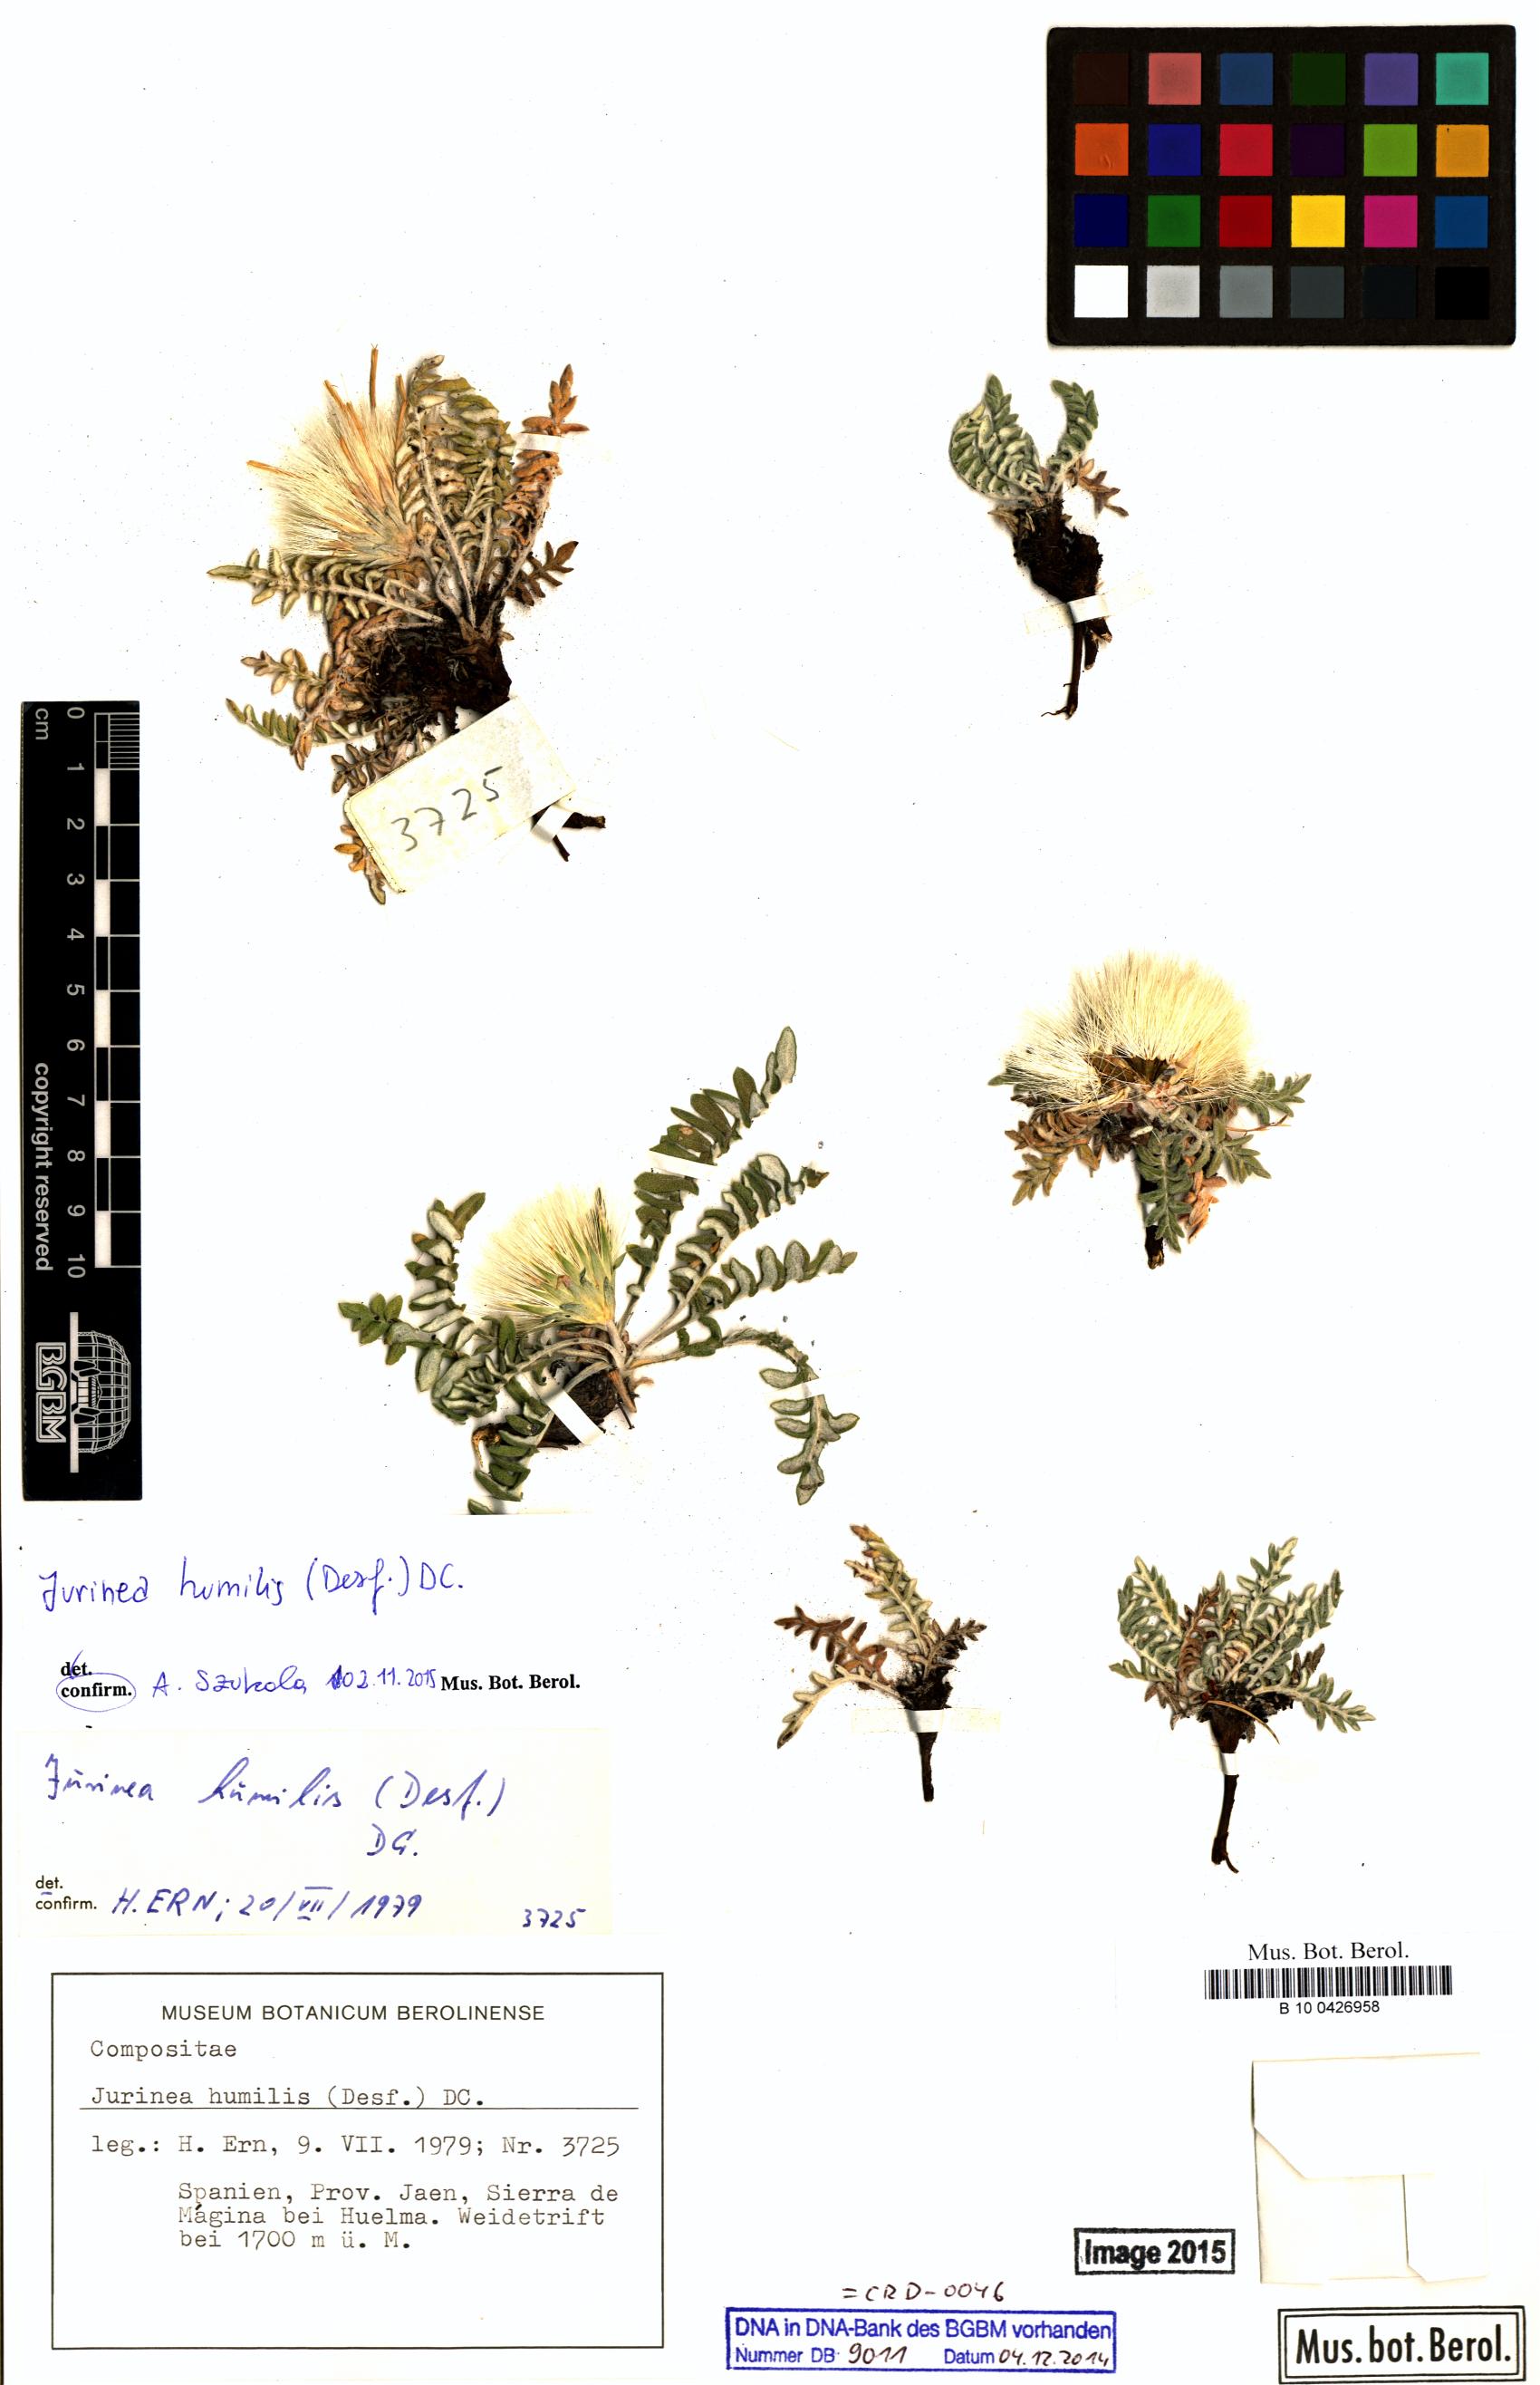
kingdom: Plantae
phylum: Tracheophyta
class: Magnoliopsida
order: Asterales
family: Asteraceae
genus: Jurinea
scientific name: Jurinea humilis
